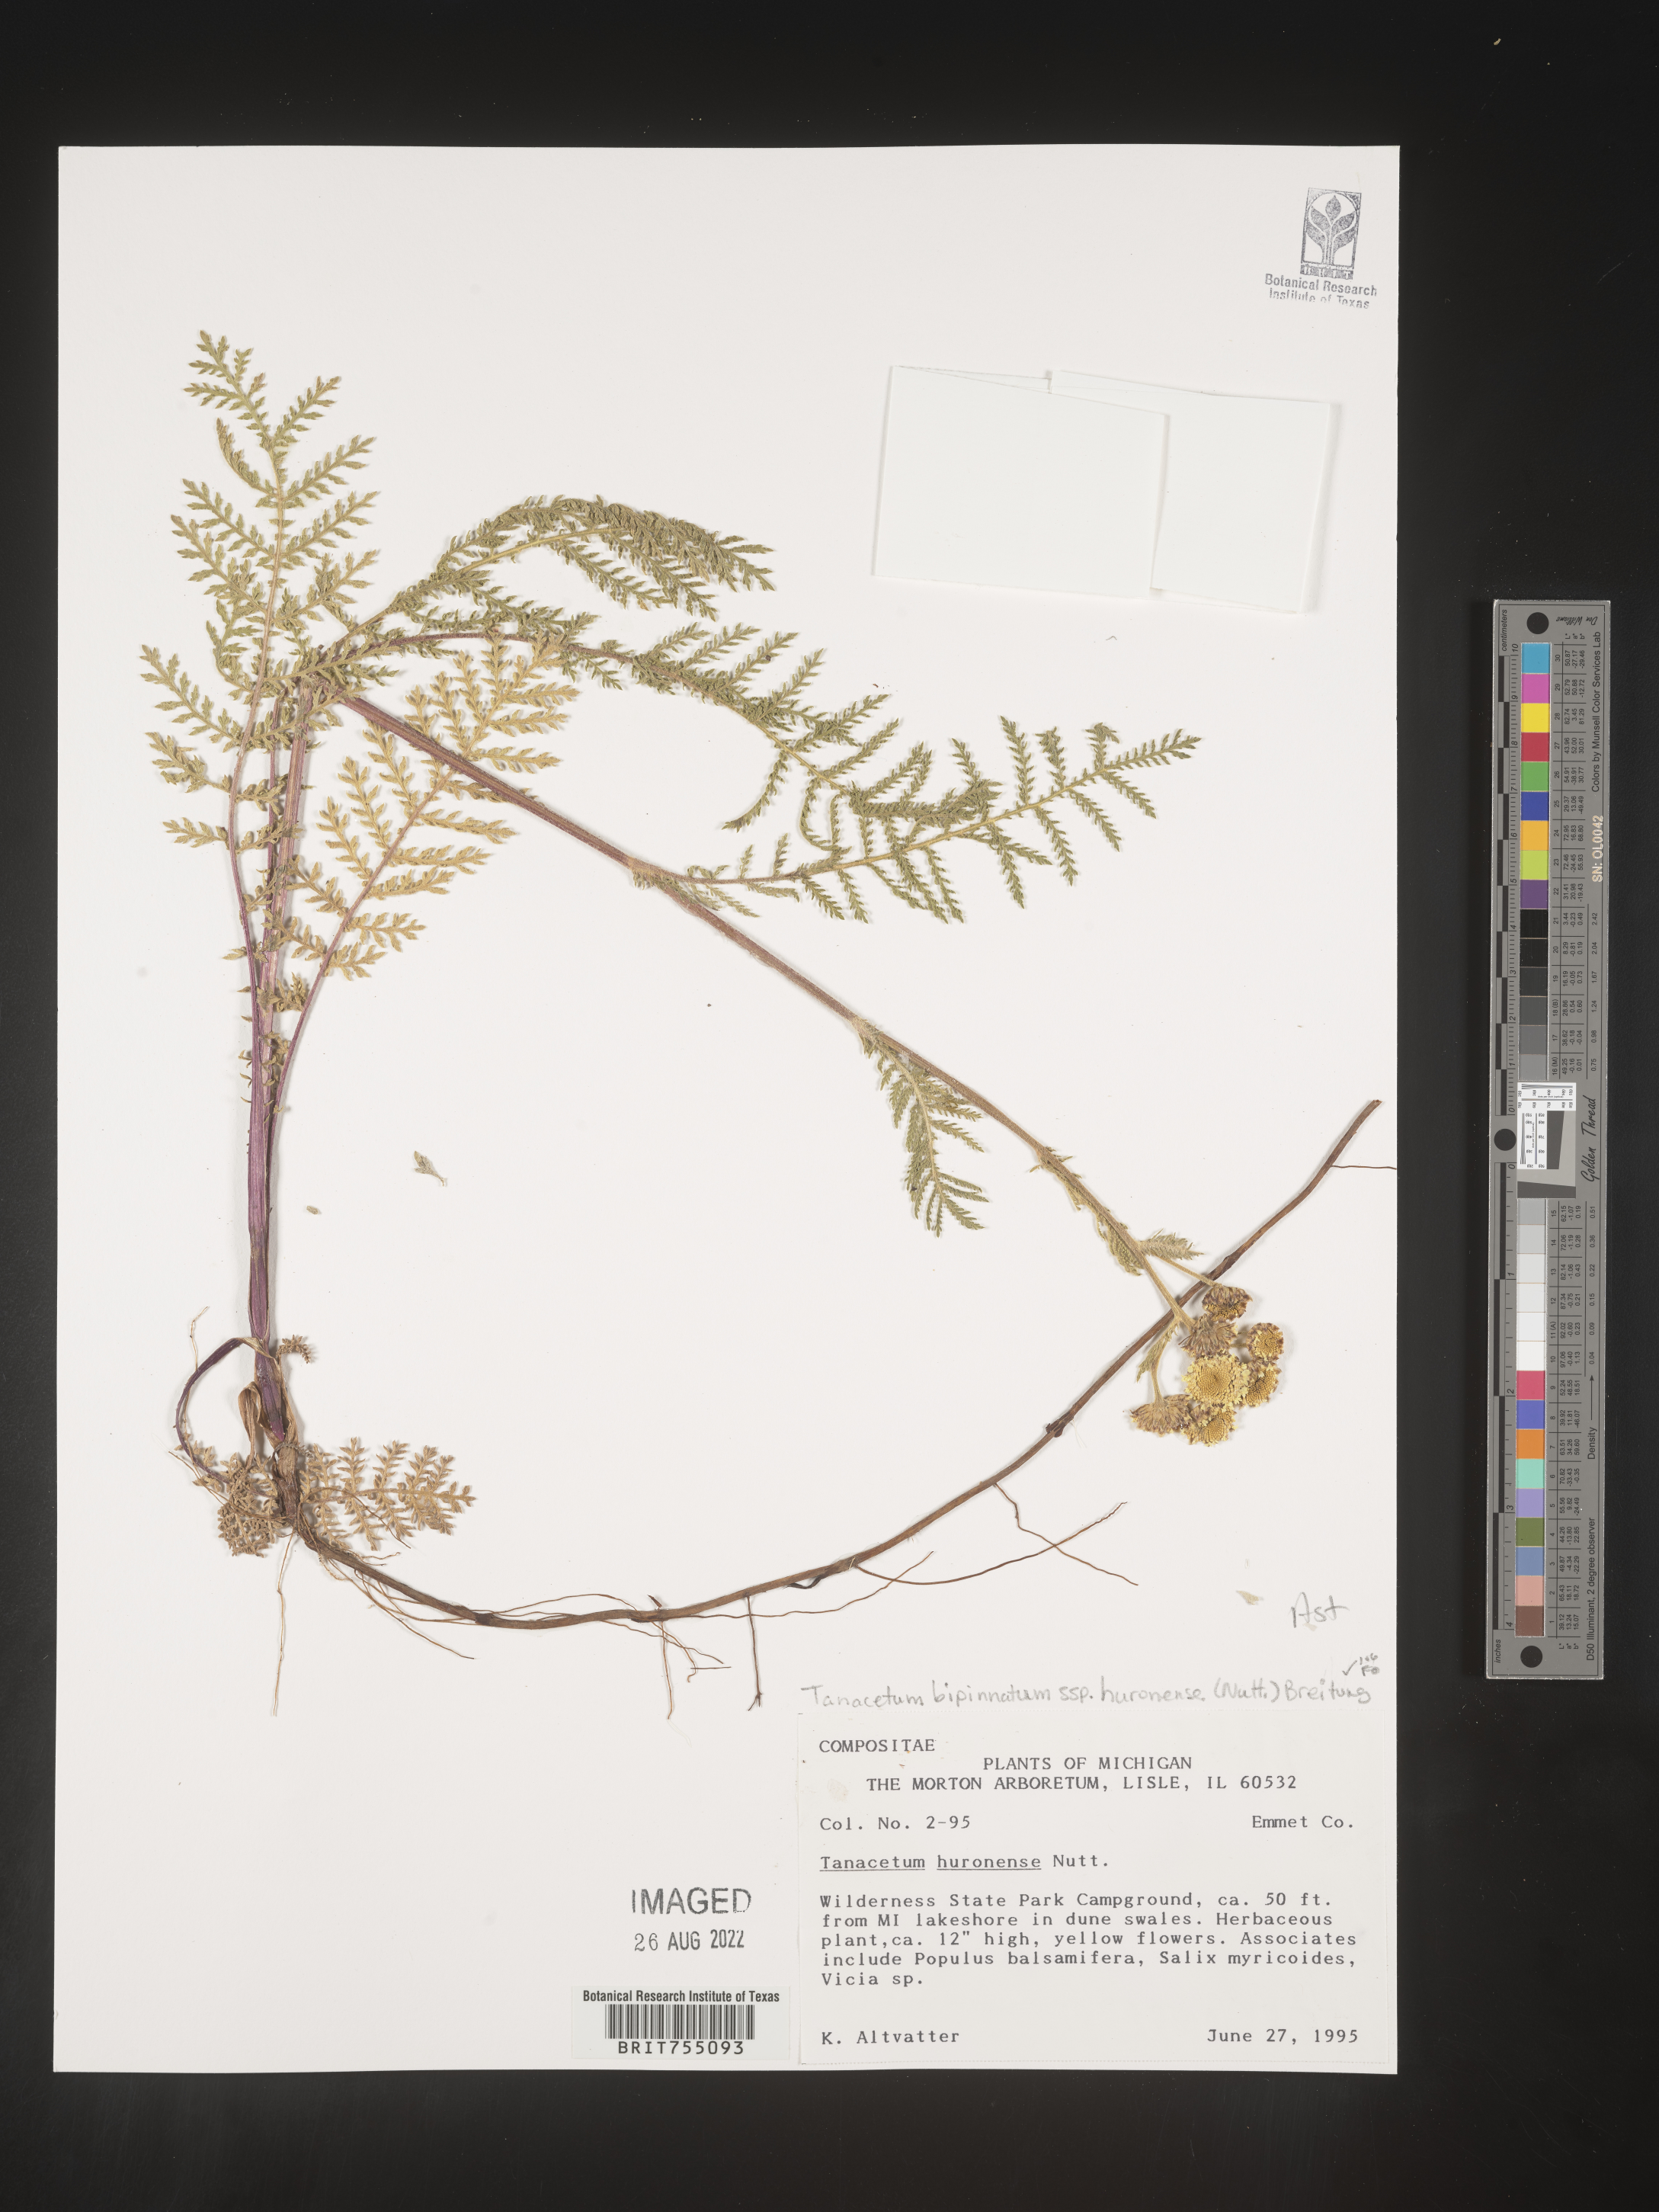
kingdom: Plantae
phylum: Tracheophyta
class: Magnoliopsida
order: Asterales
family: Asteraceae
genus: Tanacetum
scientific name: Tanacetum
